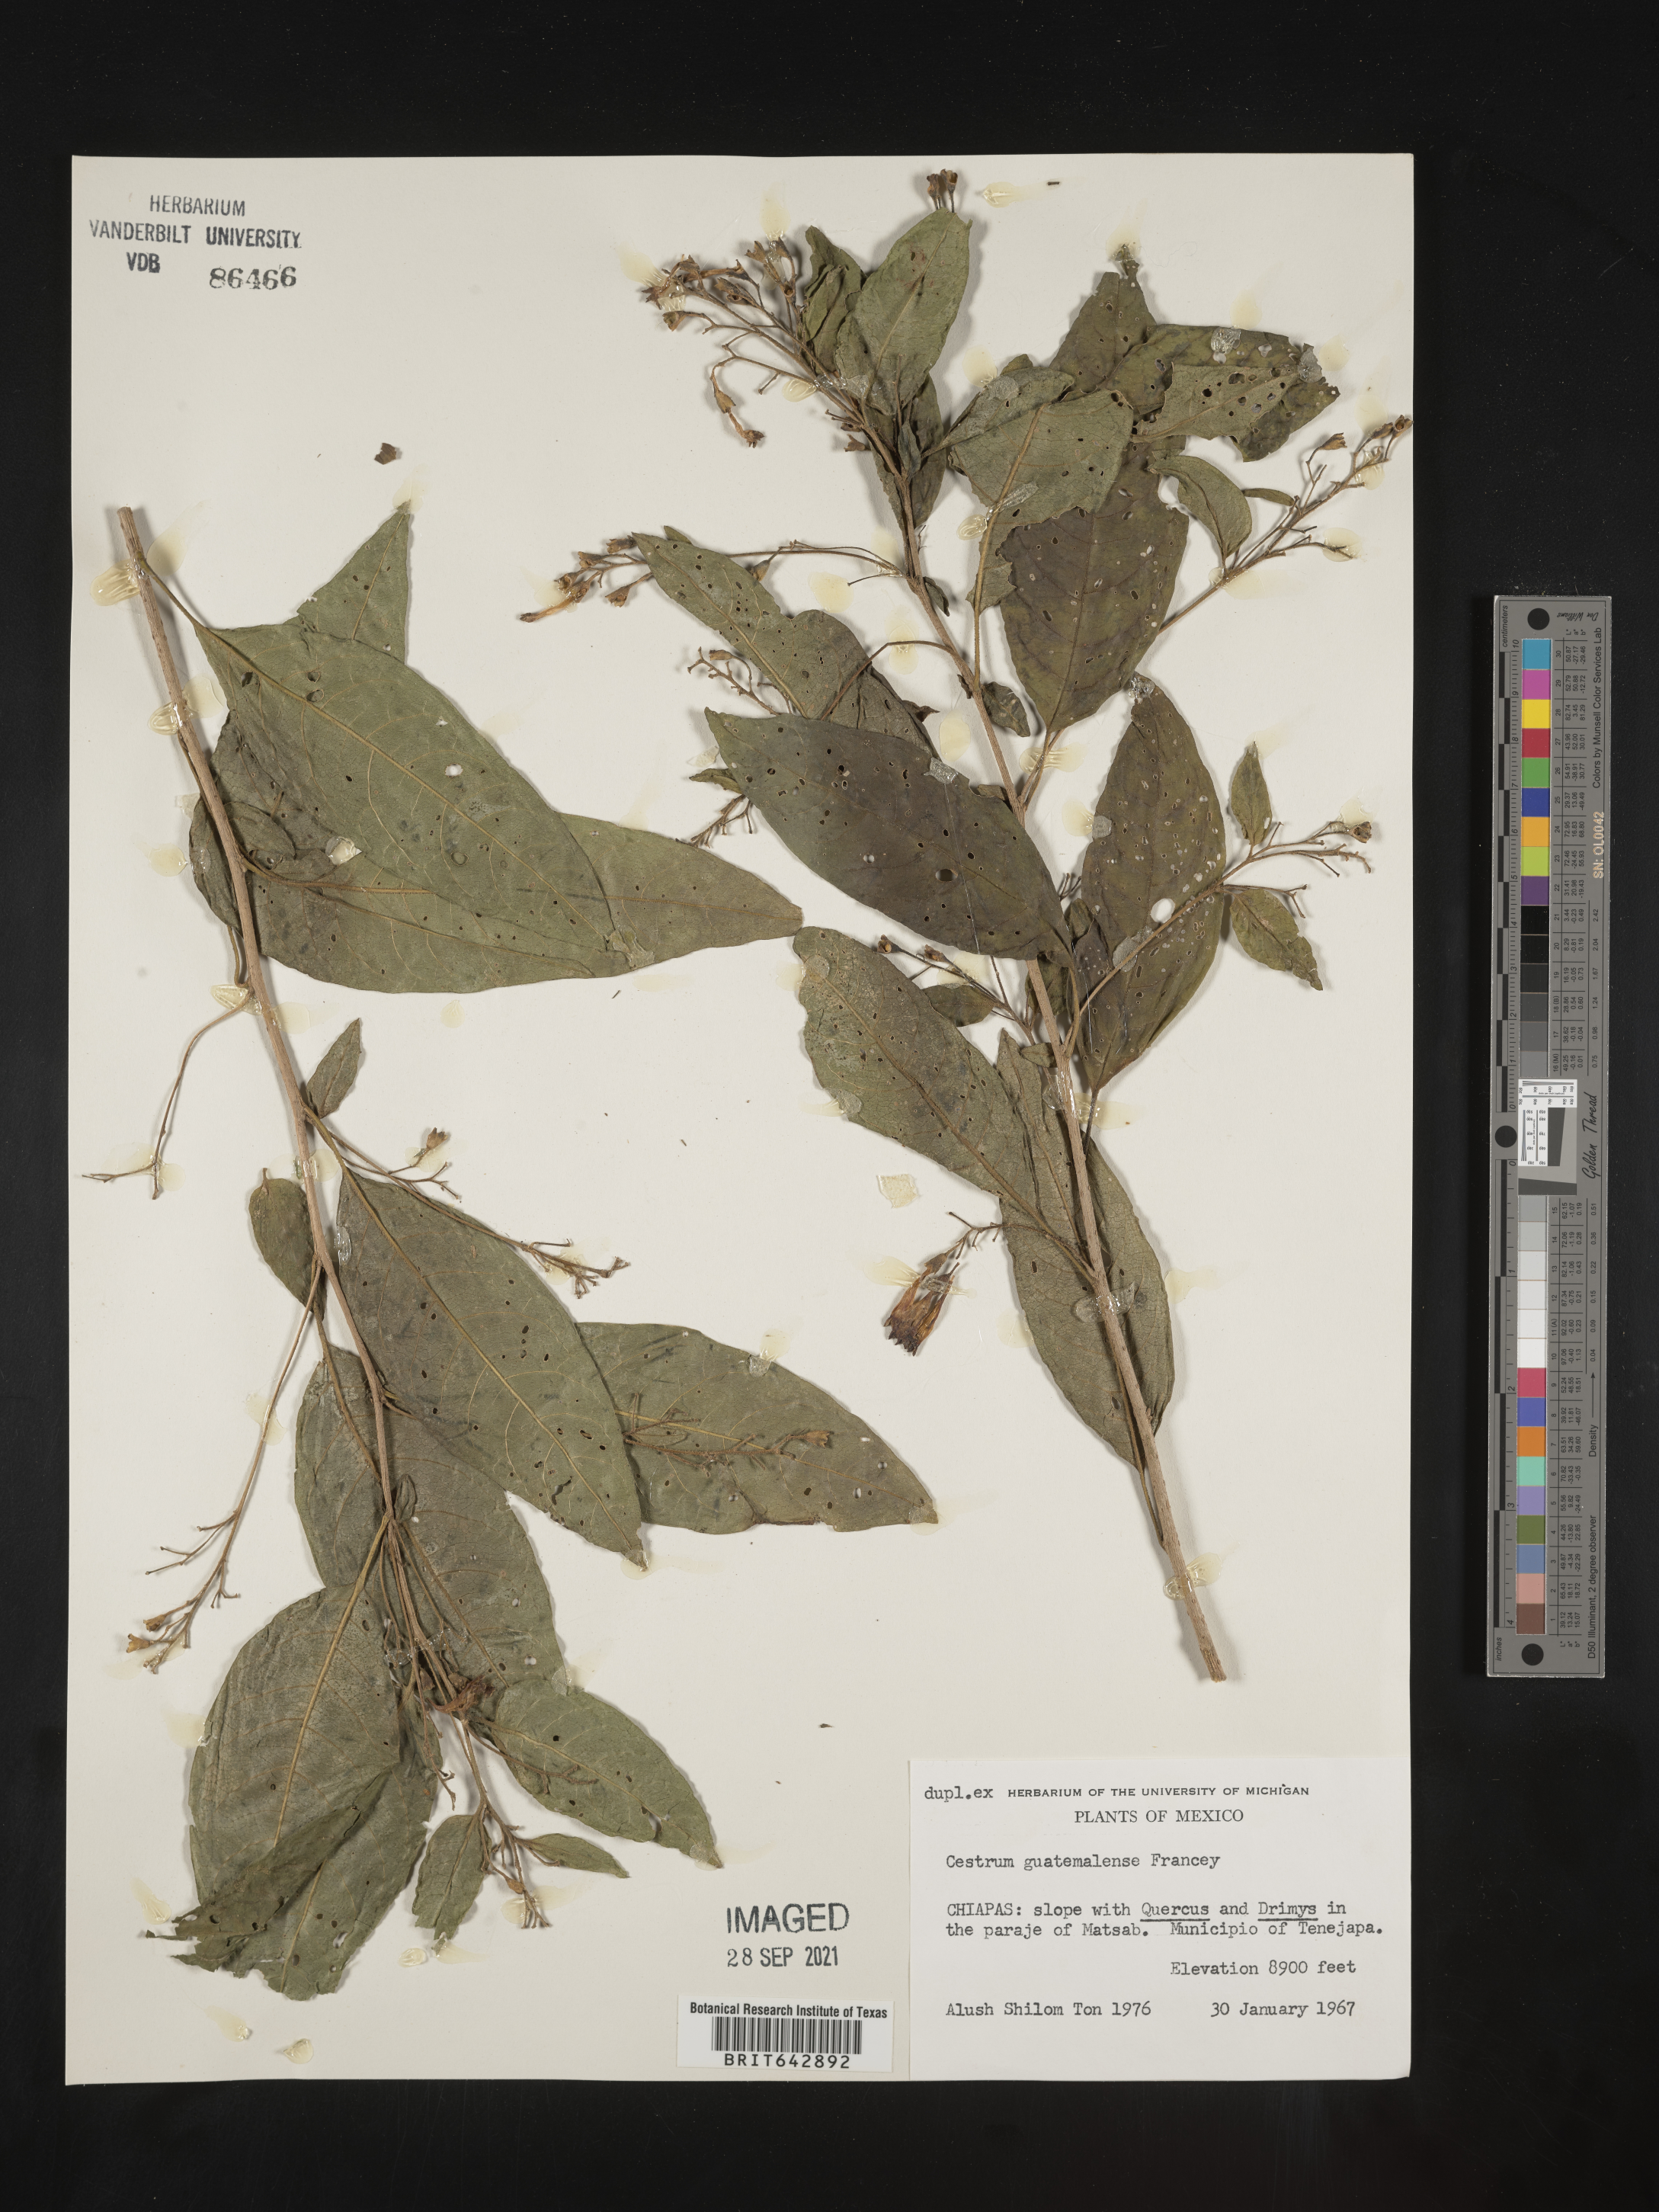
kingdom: Plantae
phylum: Tracheophyta
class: Magnoliopsida
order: Solanales
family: Solanaceae
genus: Cestrum
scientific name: Cestrum
